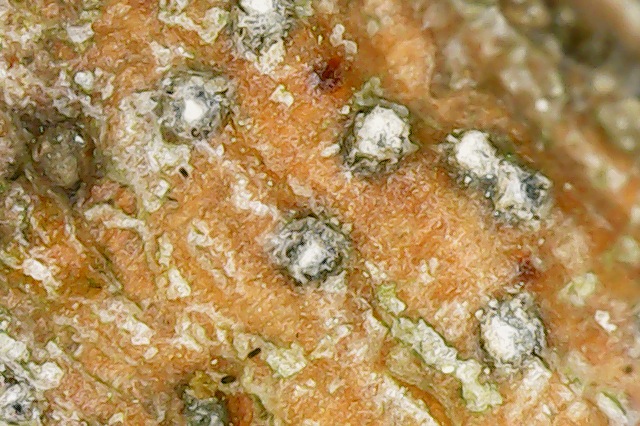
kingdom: Fungi
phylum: Ascomycota
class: Sordariomycetes
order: Diaporthales
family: Valsaceae
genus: Valsa
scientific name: Valsa salicina
